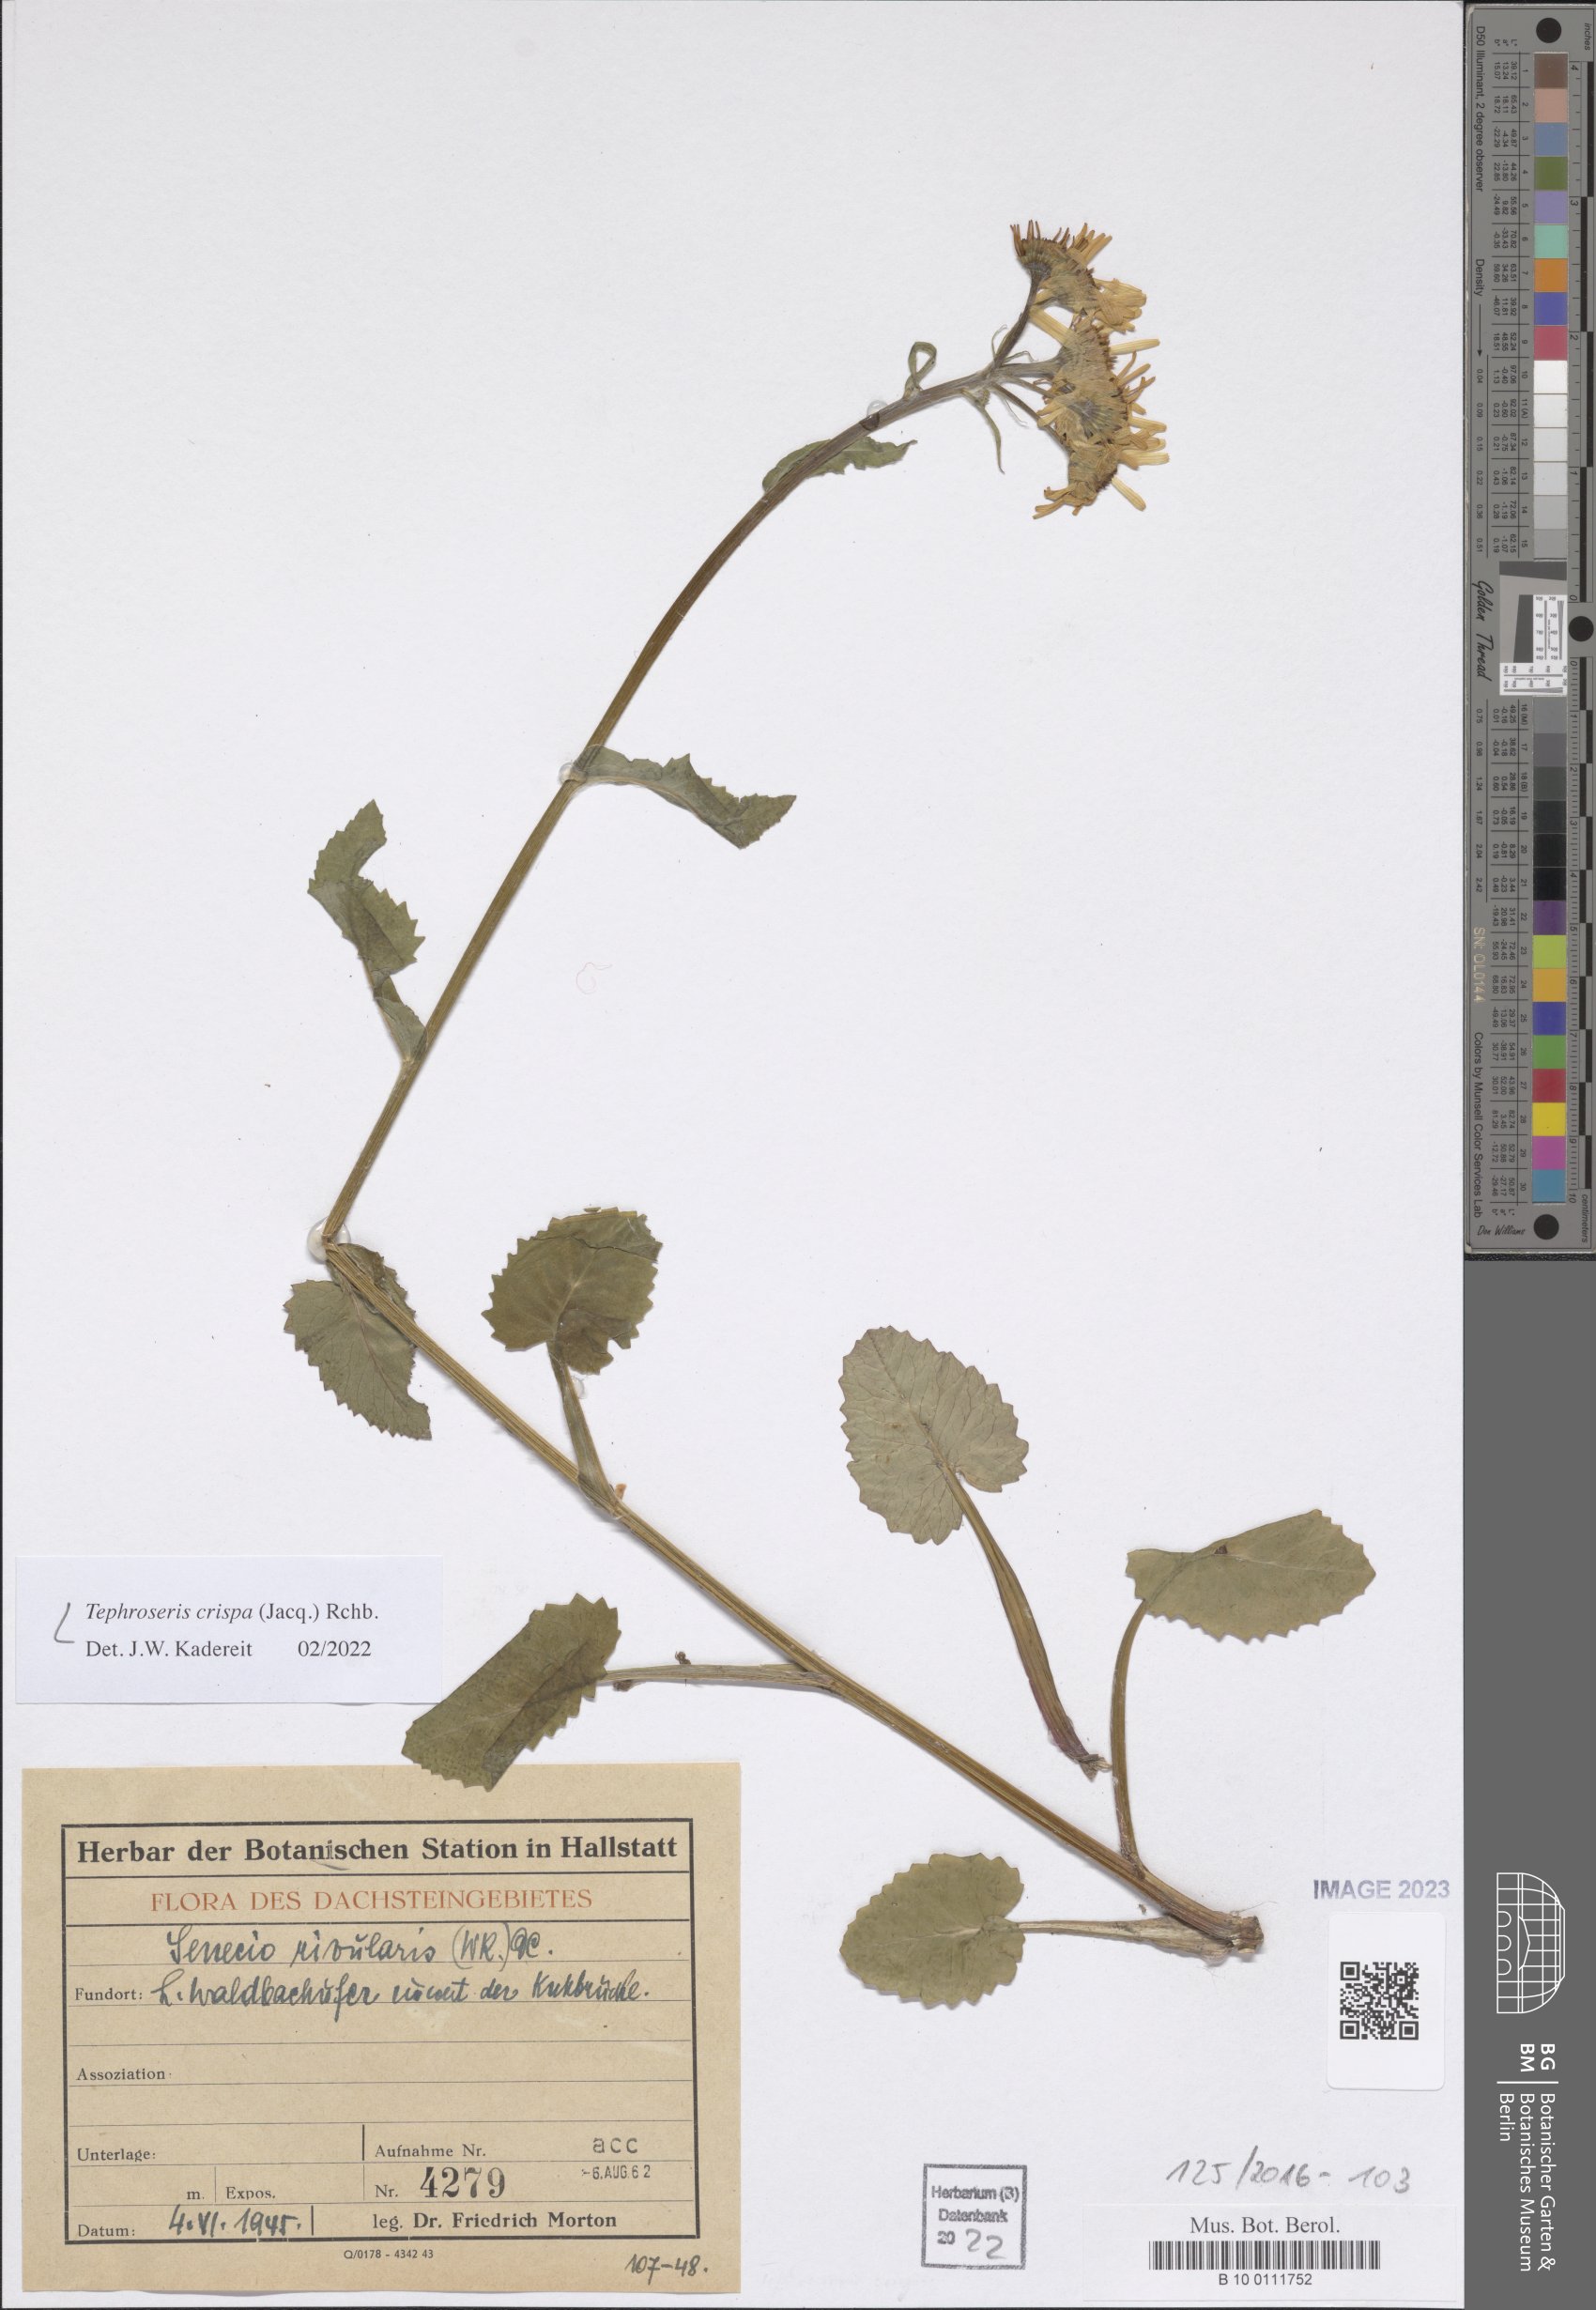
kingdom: Plantae
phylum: Tracheophyta
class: Magnoliopsida
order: Asterales
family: Asteraceae
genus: Tephroseris
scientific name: Tephroseris crispa
